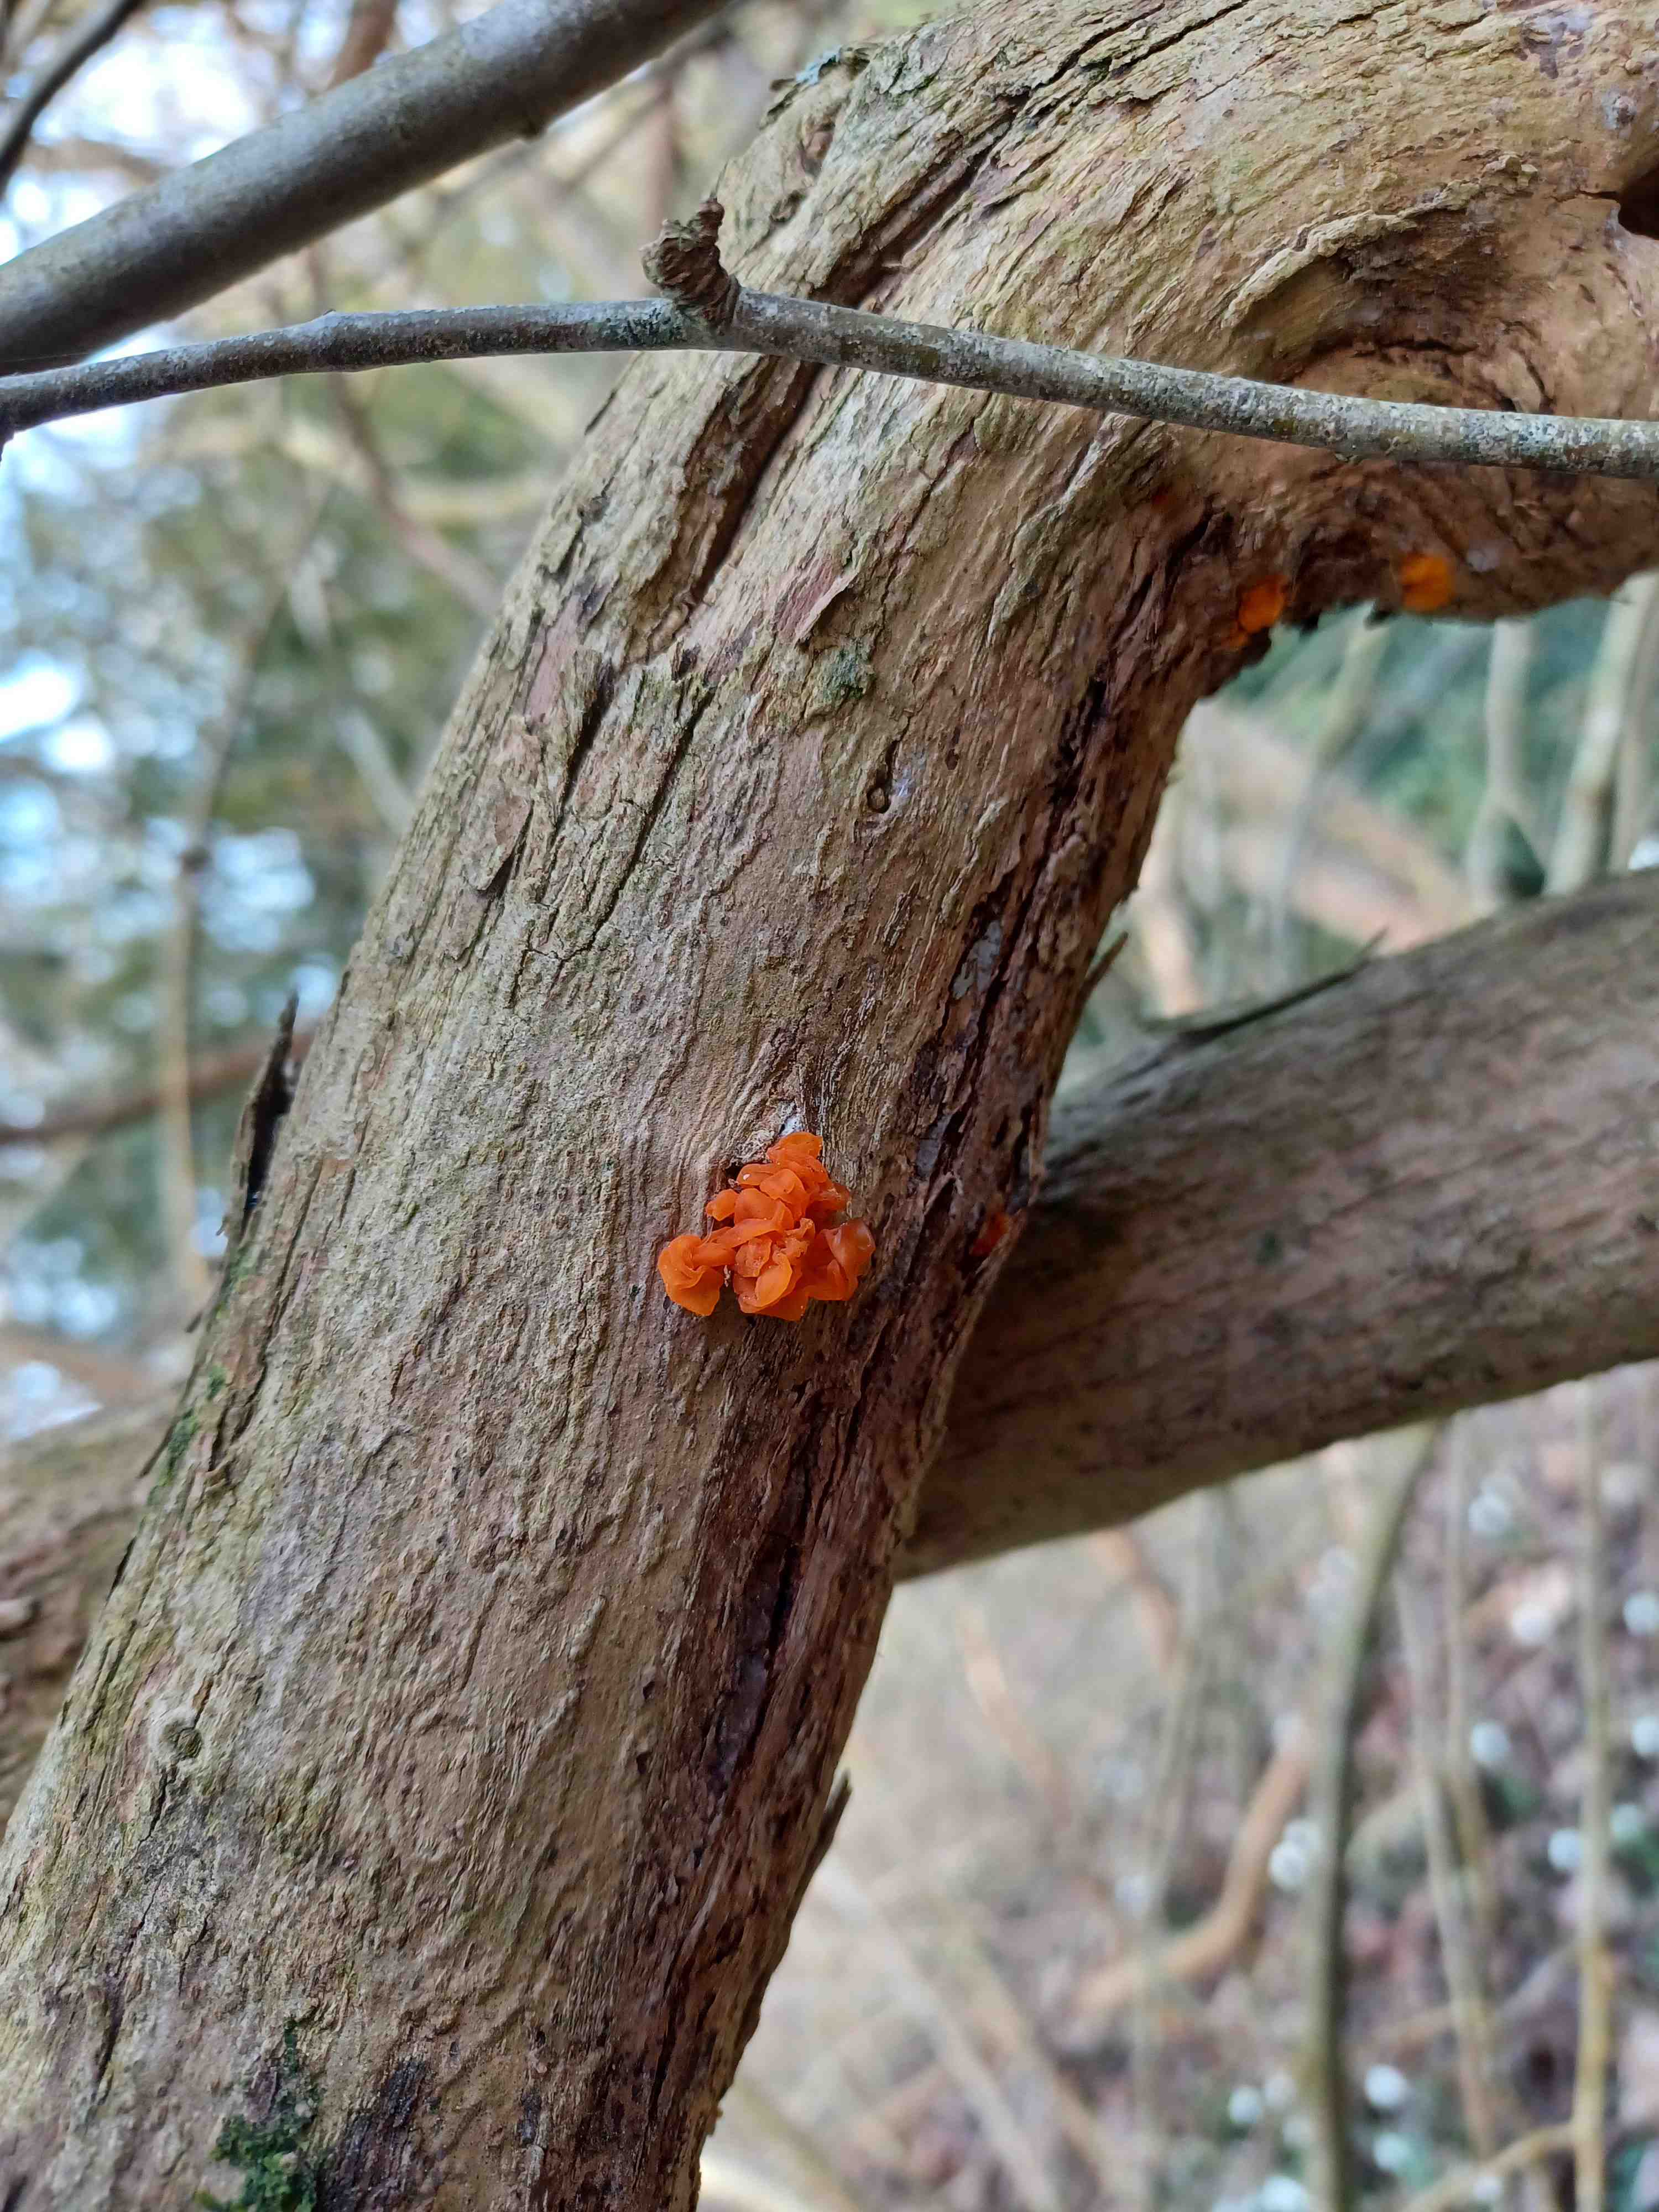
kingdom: Fungi
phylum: Basidiomycota
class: Tremellomycetes
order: Tremellales
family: Tremellaceae
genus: Tremella
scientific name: Tremella mesenterica
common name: gul bævresvamp
